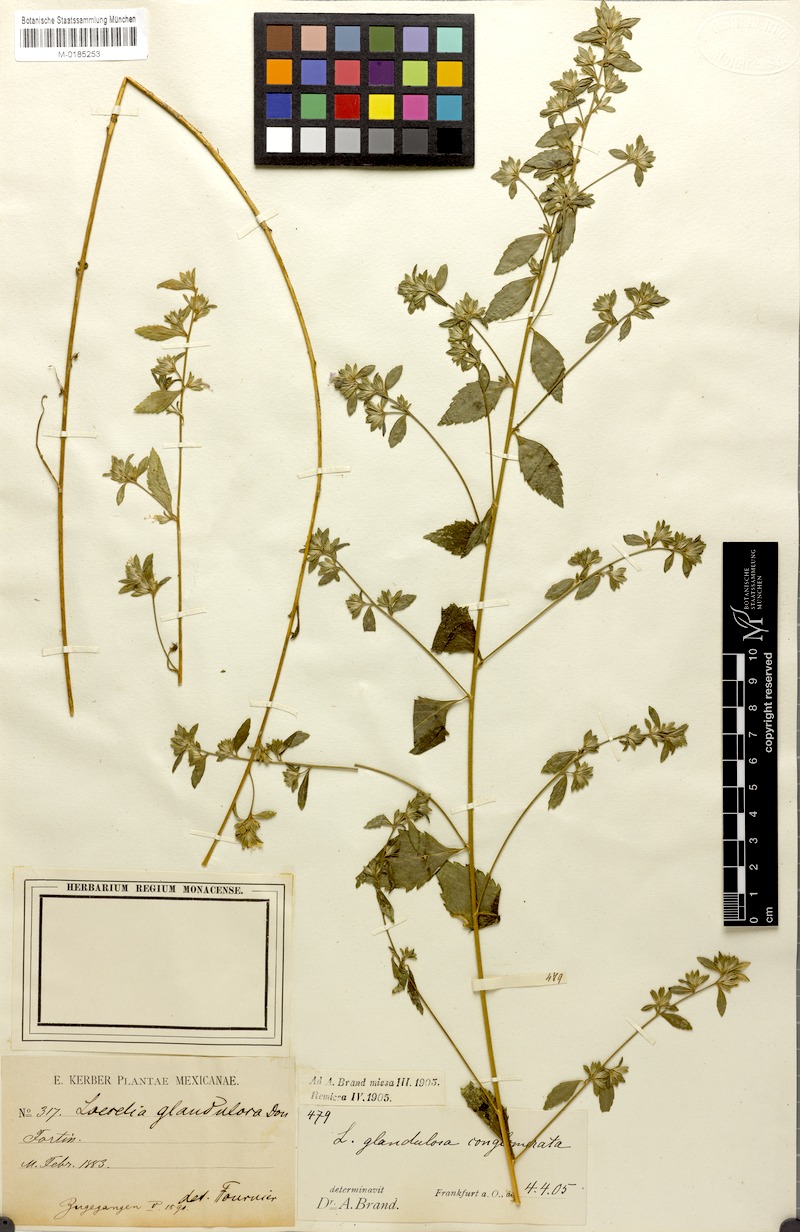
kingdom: Plantae
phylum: Tracheophyta
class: Magnoliopsida
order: Ericales
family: Polemoniaceae
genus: Loeselia
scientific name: Loeselia glandulosa
